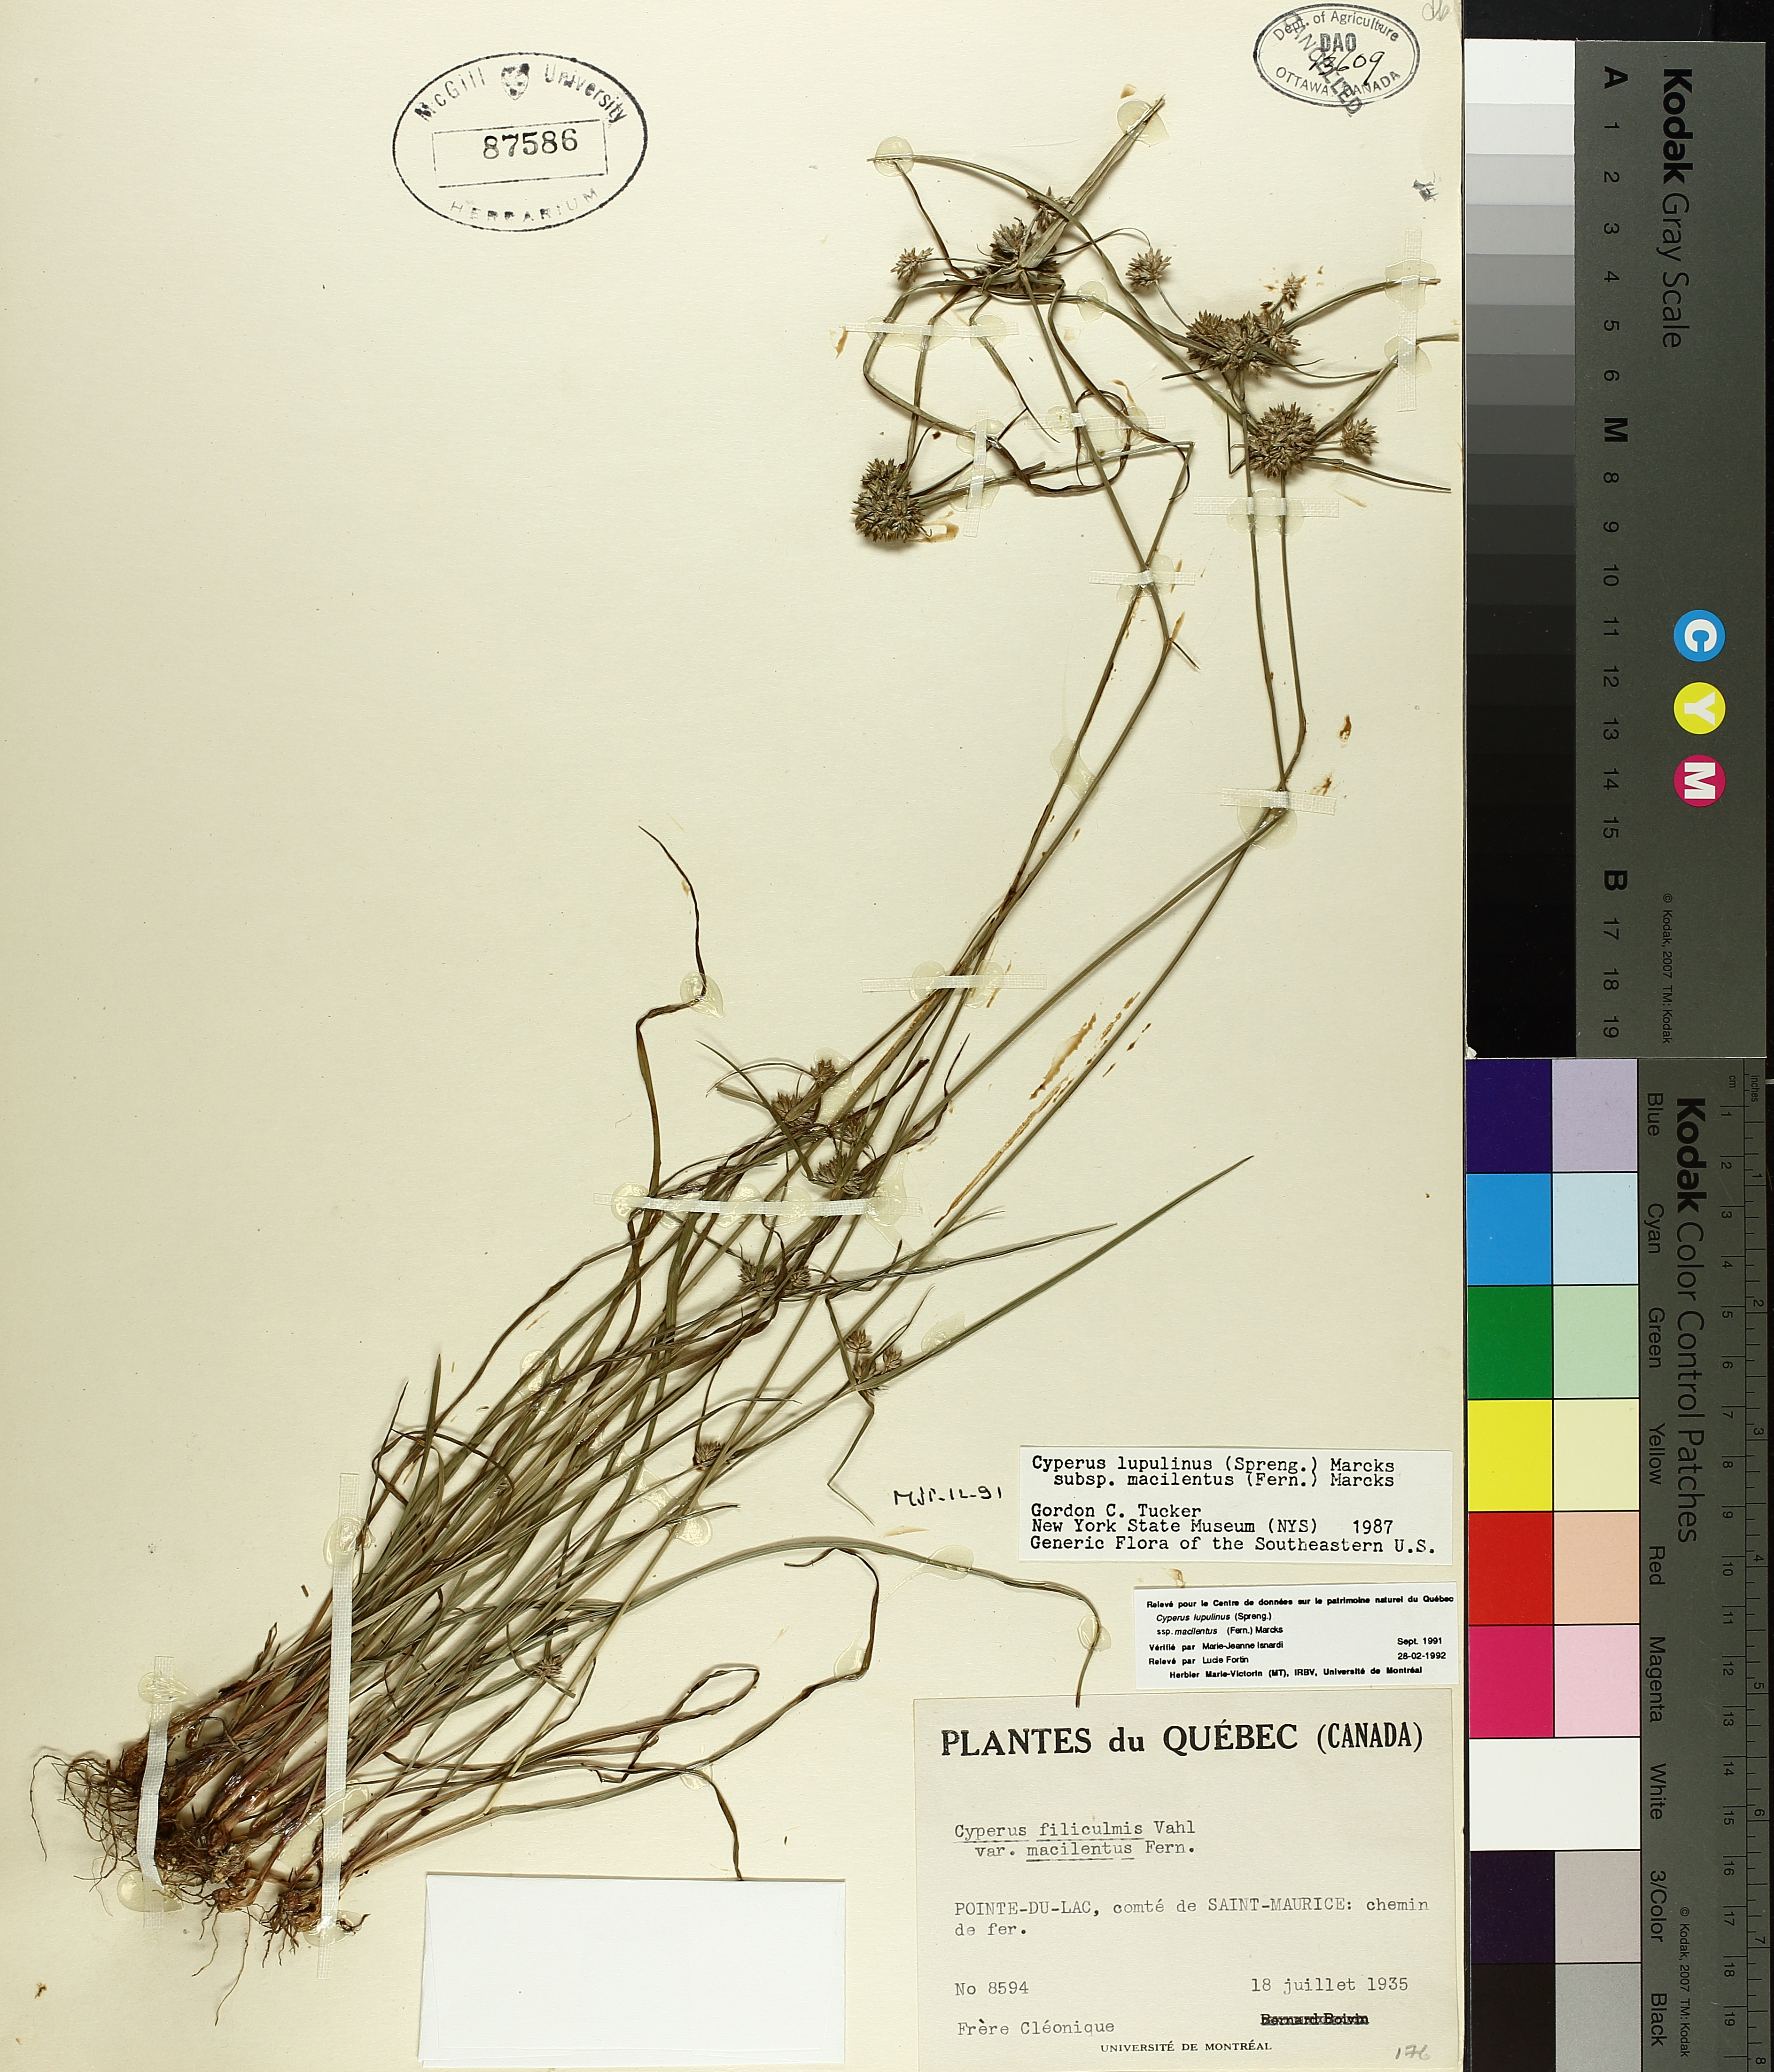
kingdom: Plantae
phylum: Tracheophyta
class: Liliopsida
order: Poales
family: Cyperaceae
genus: Cyperus
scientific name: Cyperus lupulinus
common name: Great plains flatsedge
